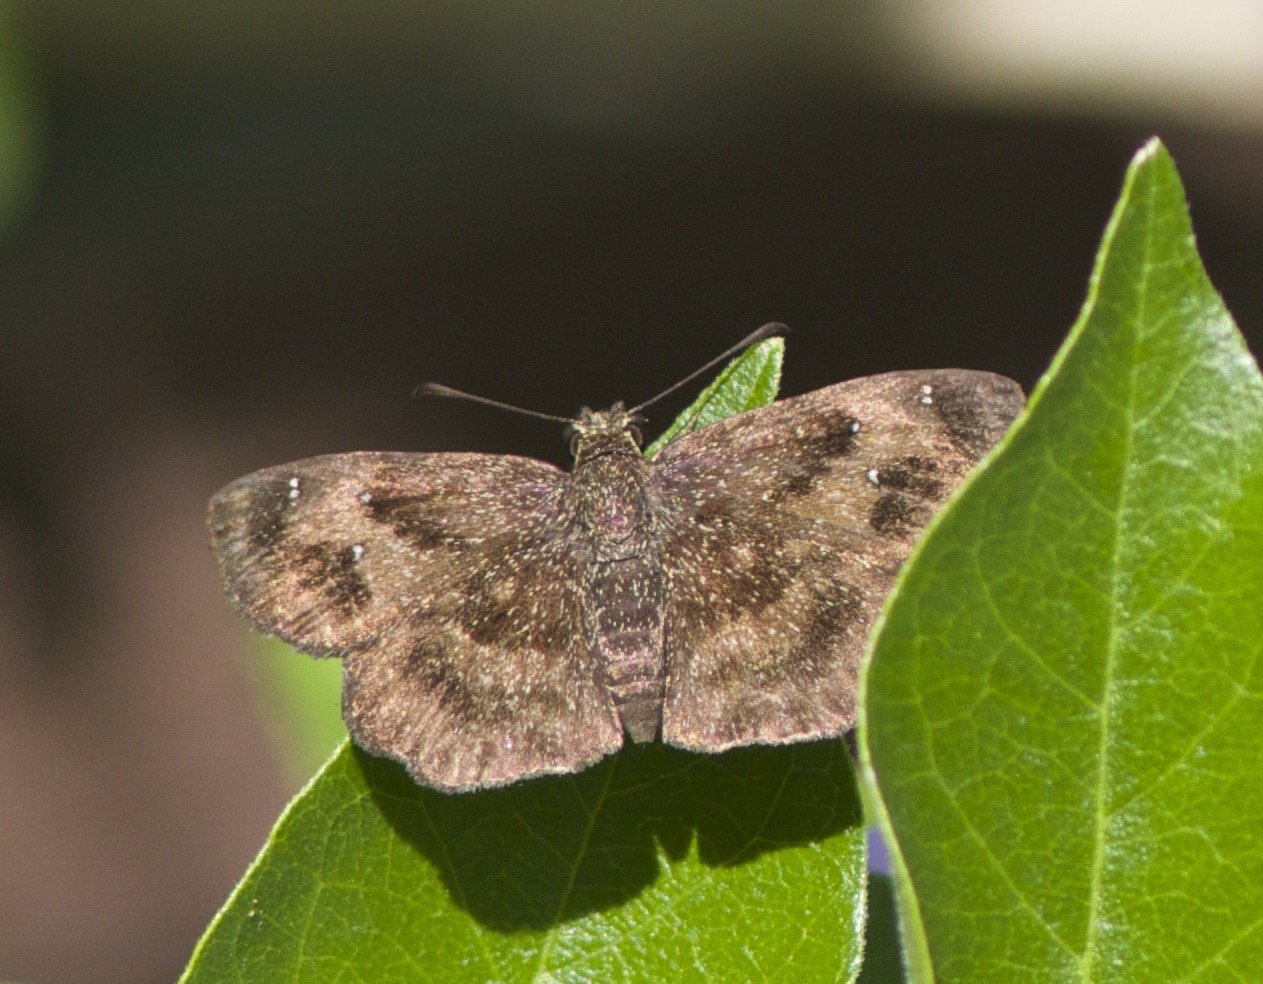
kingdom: Animalia
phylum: Arthropoda
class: Insecta
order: Lepidoptera
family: Hesperiidae
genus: Staphylus
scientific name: Staphylus mazans
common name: Mazans Scallopwing
